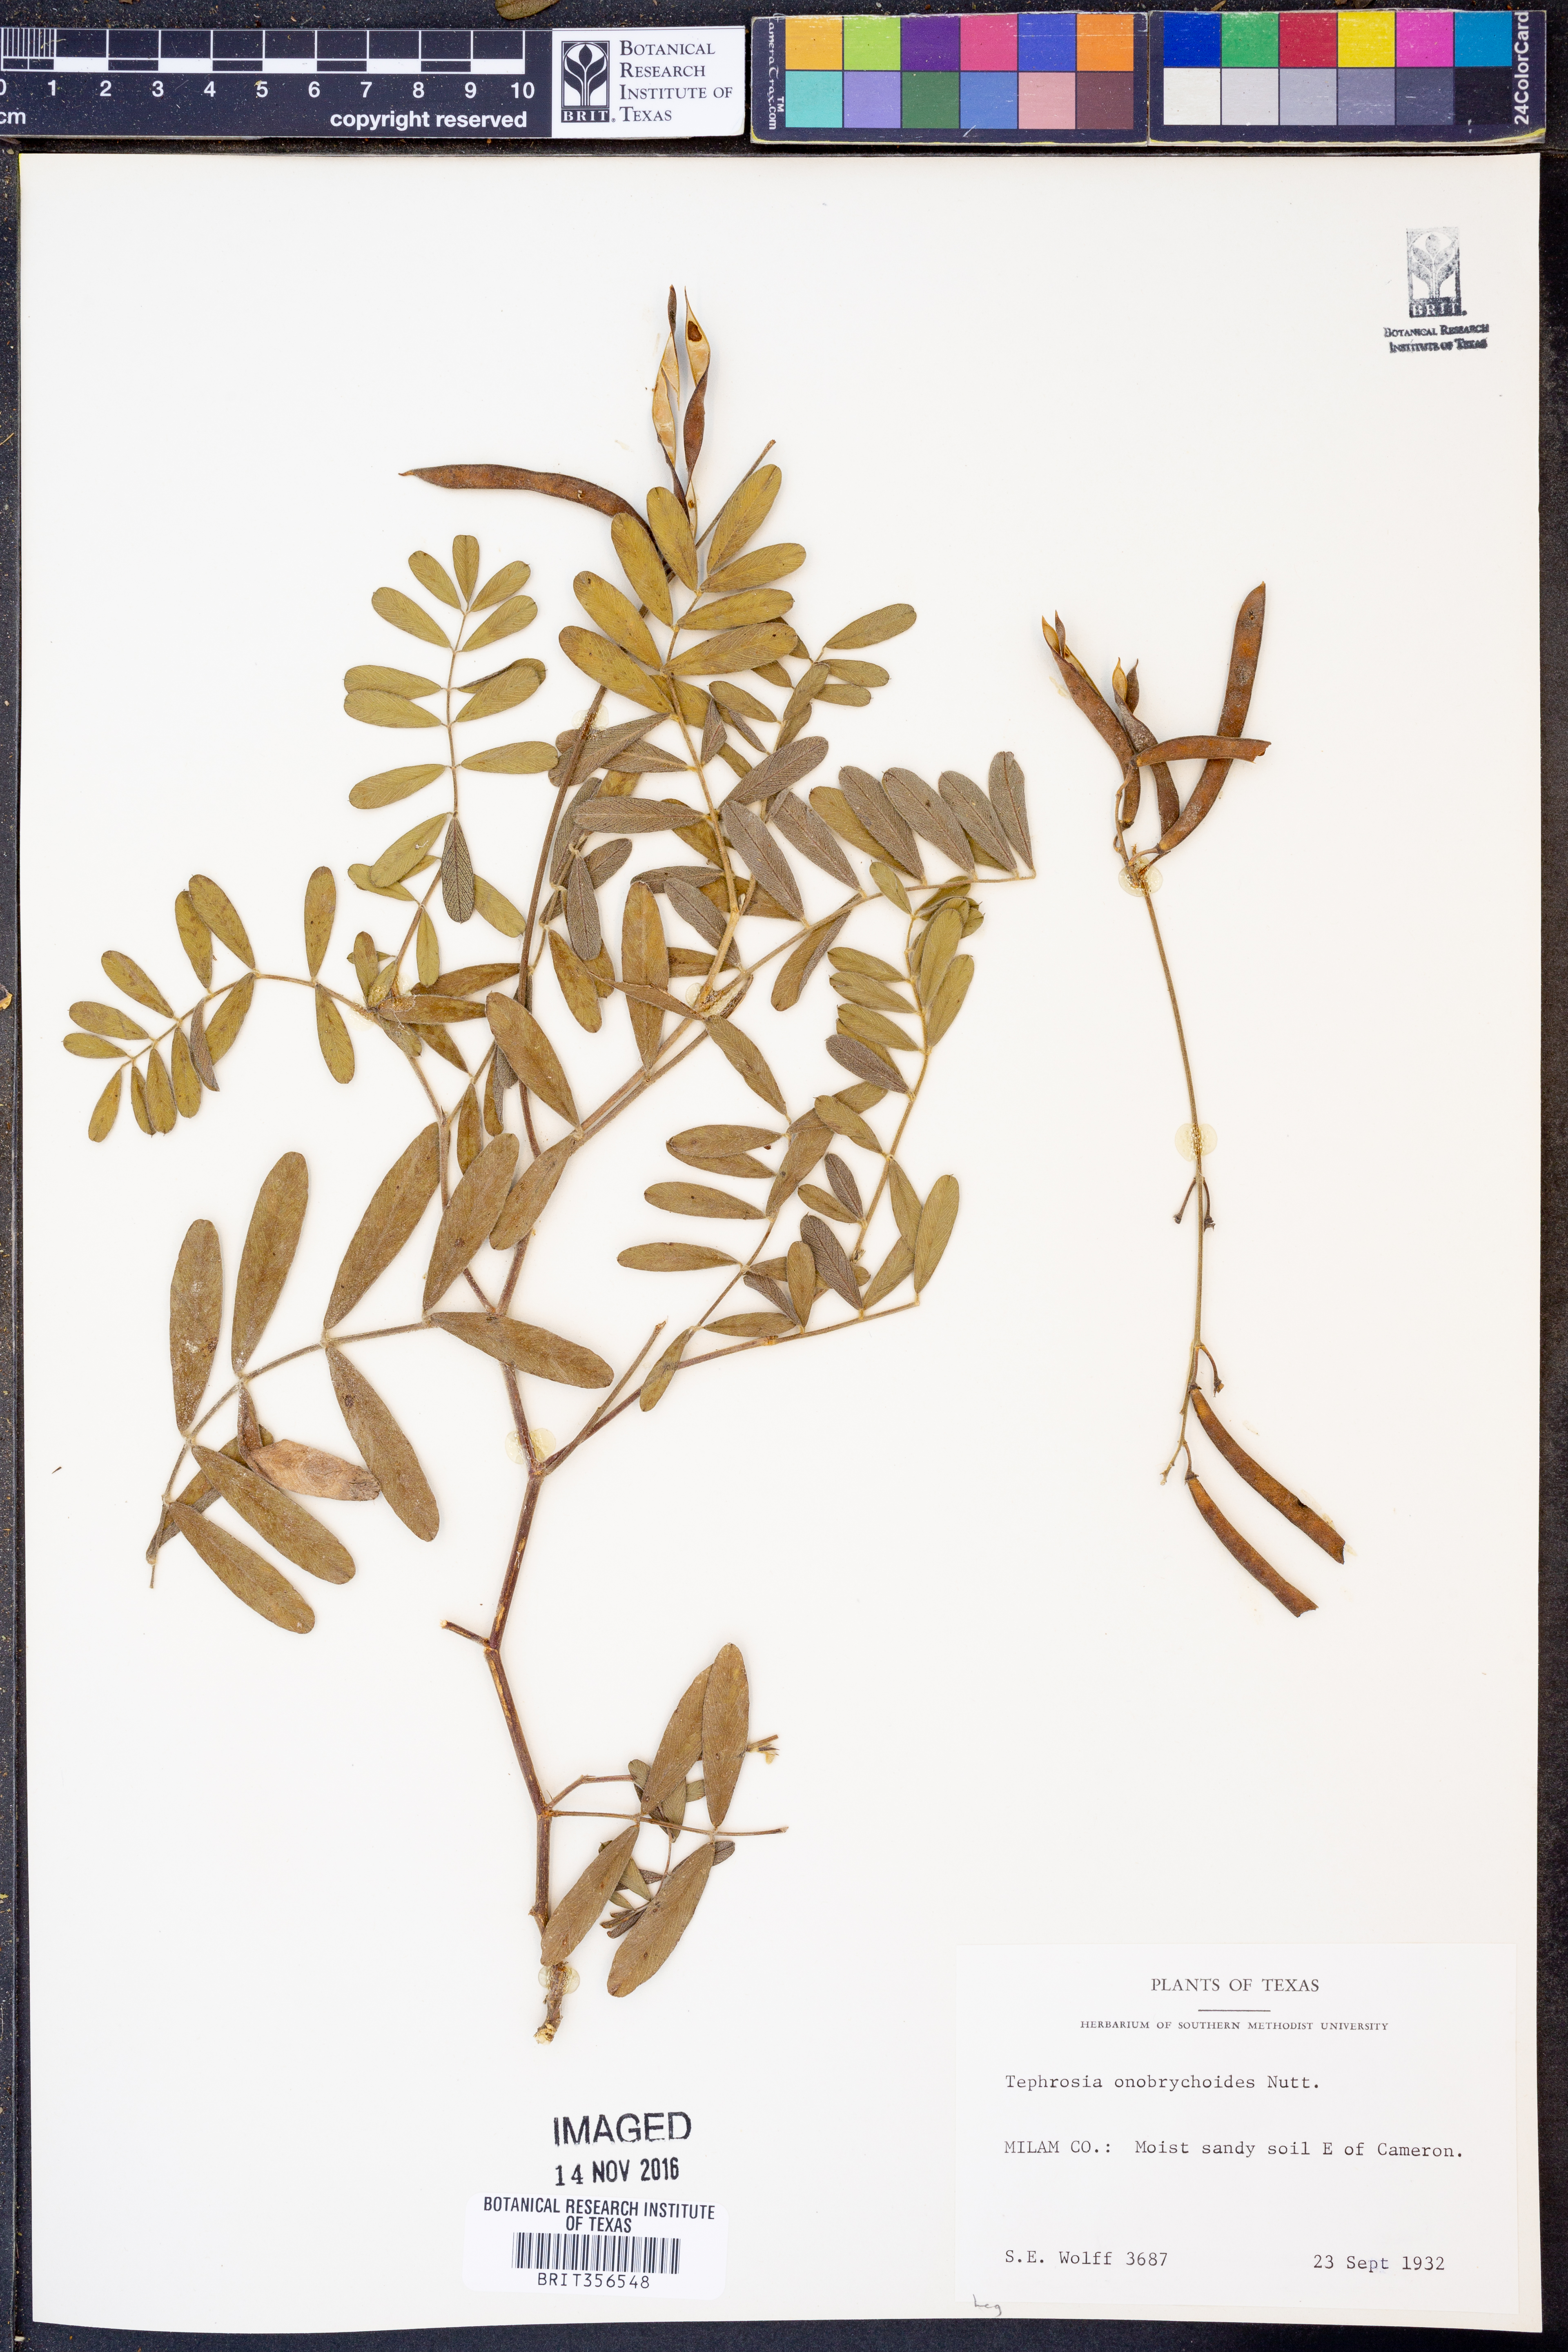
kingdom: Plantae
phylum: Tracheophyta
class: Magnoliopsida
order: Fabales
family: Fabaceae
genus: Tephrosia
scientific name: Tephrosia onobrychoides
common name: Multi-bloom hoary-pea
